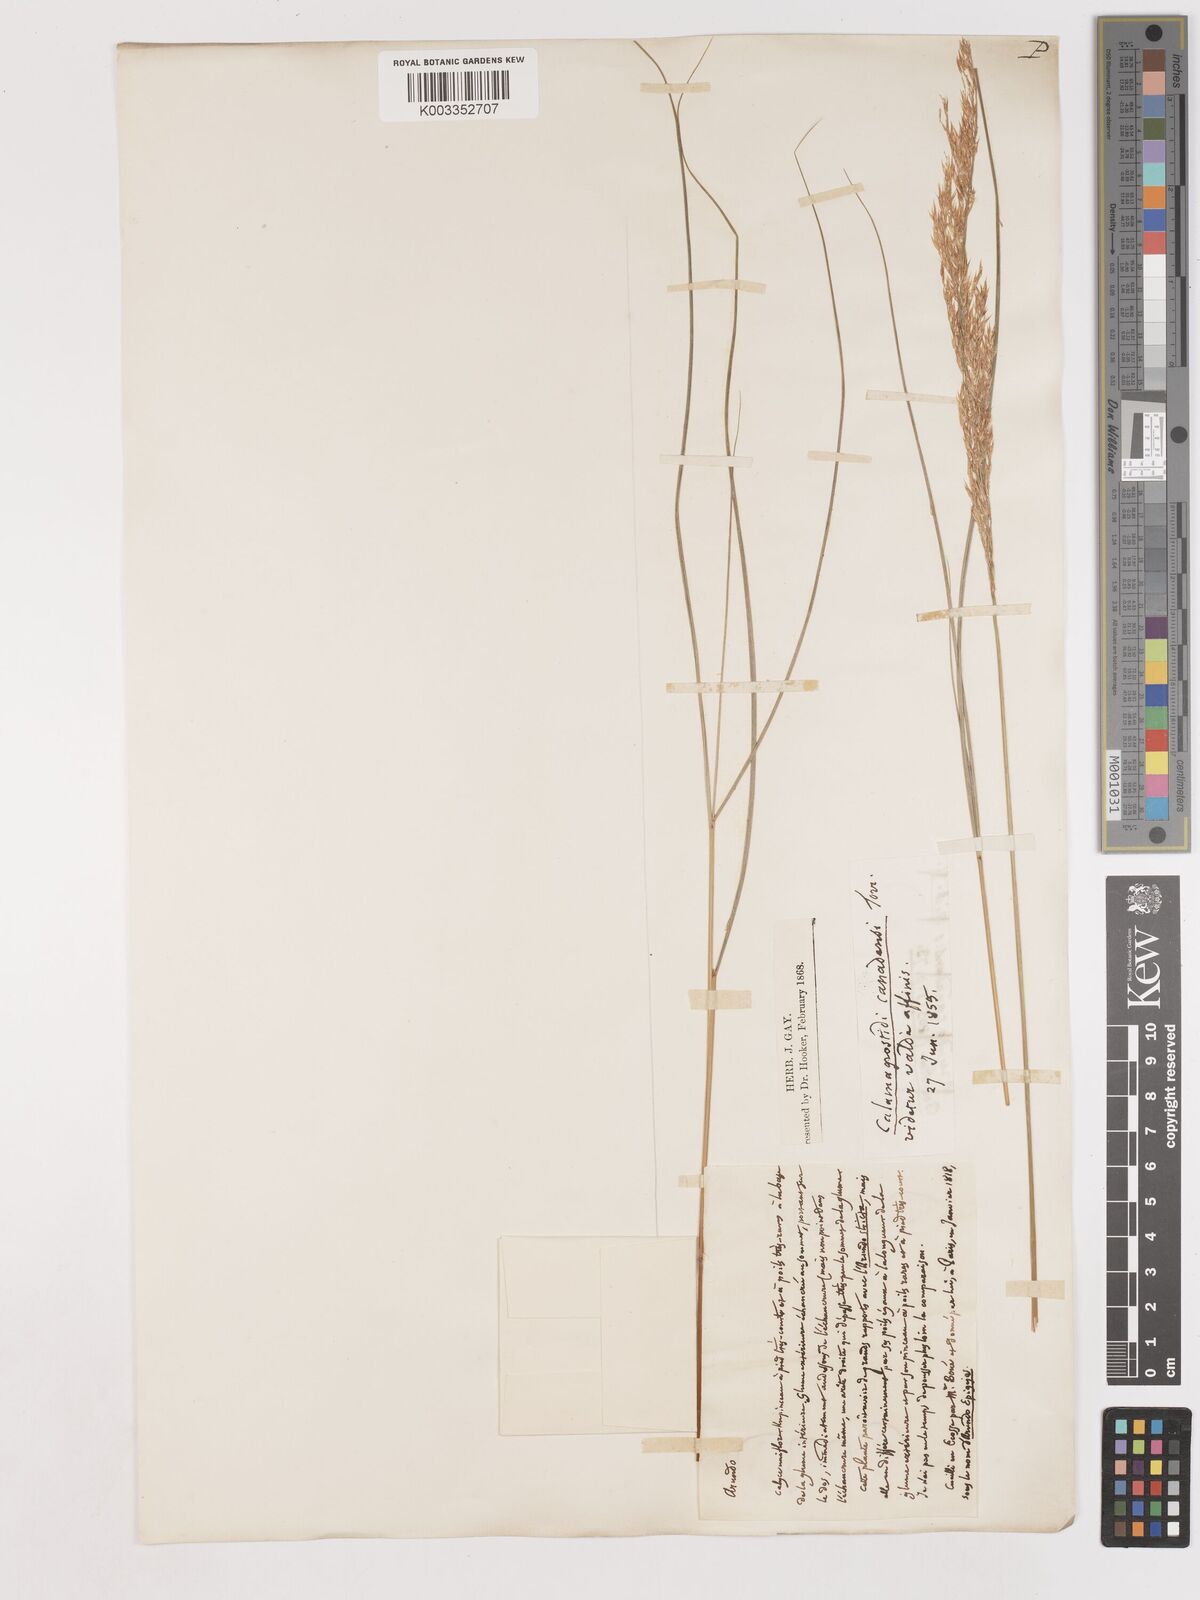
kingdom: Plantae
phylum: Tracheophyta
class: Liliopsida
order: Poales
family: Poaceae
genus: Calamagrostis
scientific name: Calamagrostis canadensis
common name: Canada bluejoint
